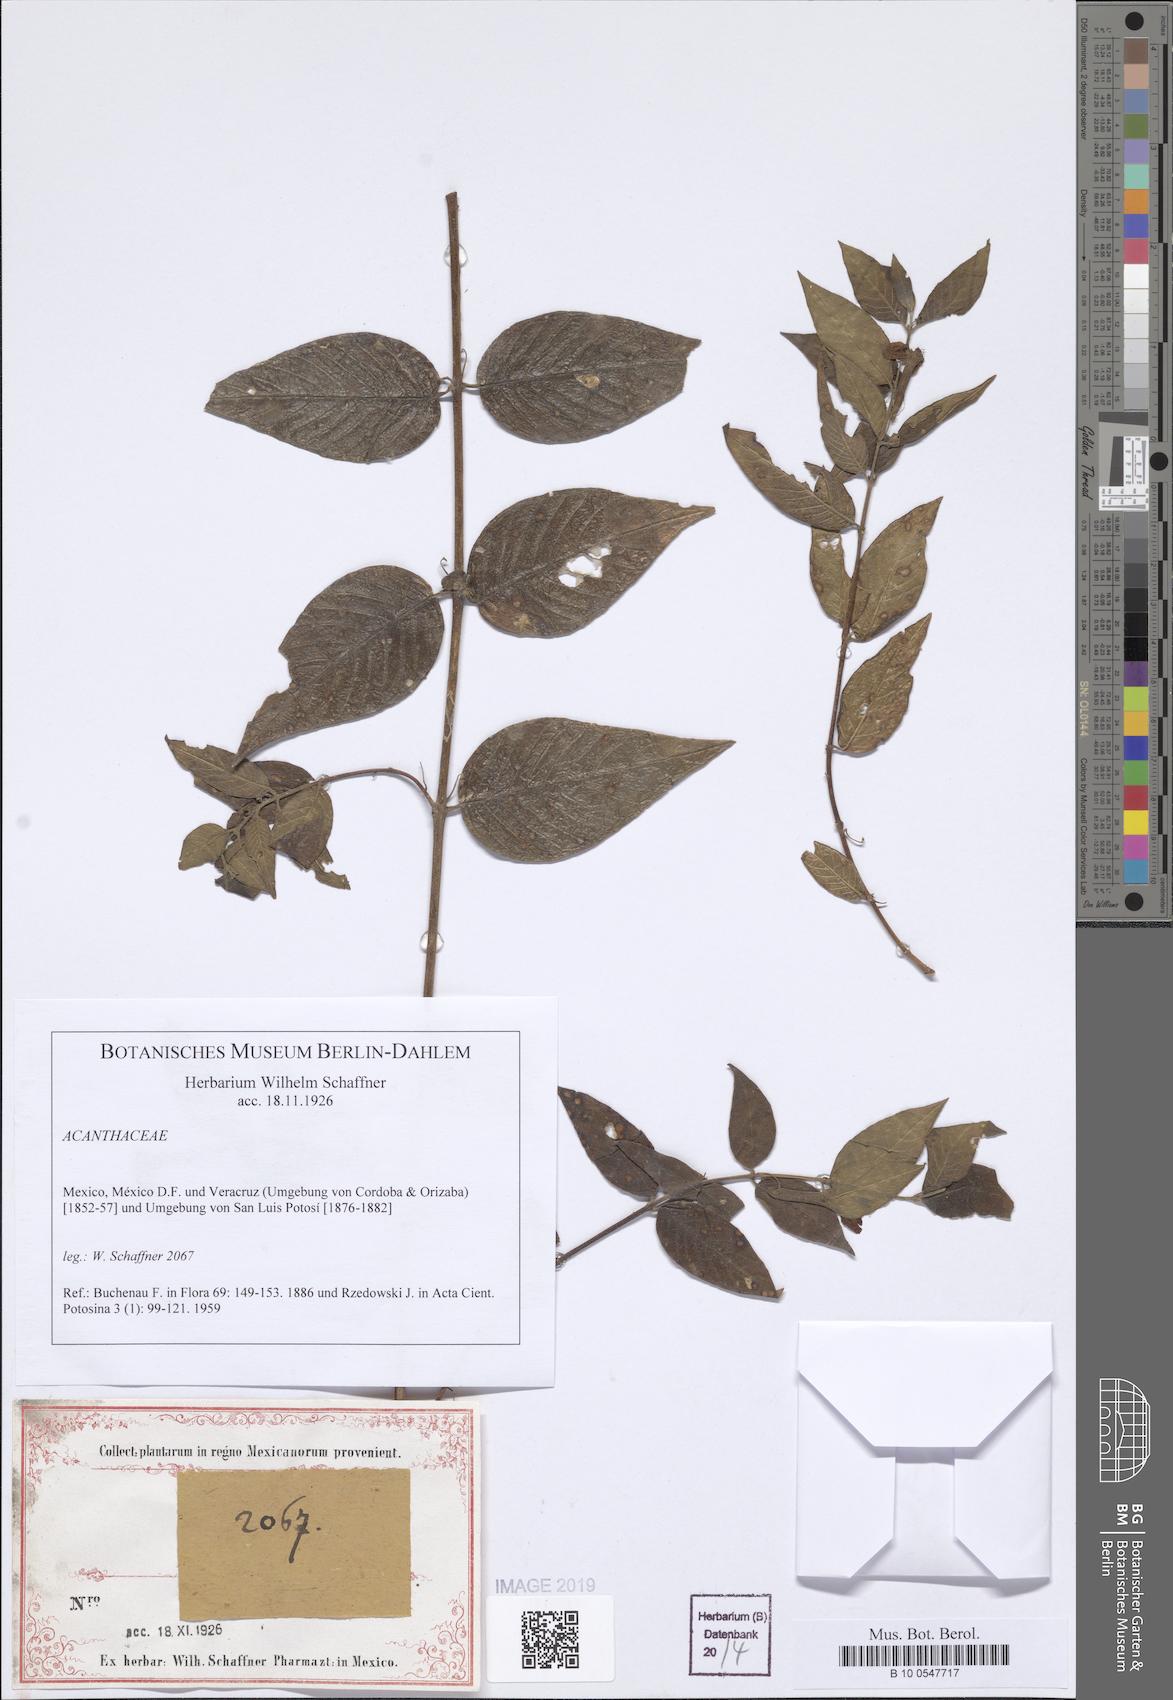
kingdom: Plantae
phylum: Tracheophyta
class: Magnoliopsida
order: Lamiales
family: Acanthaceae
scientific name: Acanthaceae
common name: Acanthaceae
